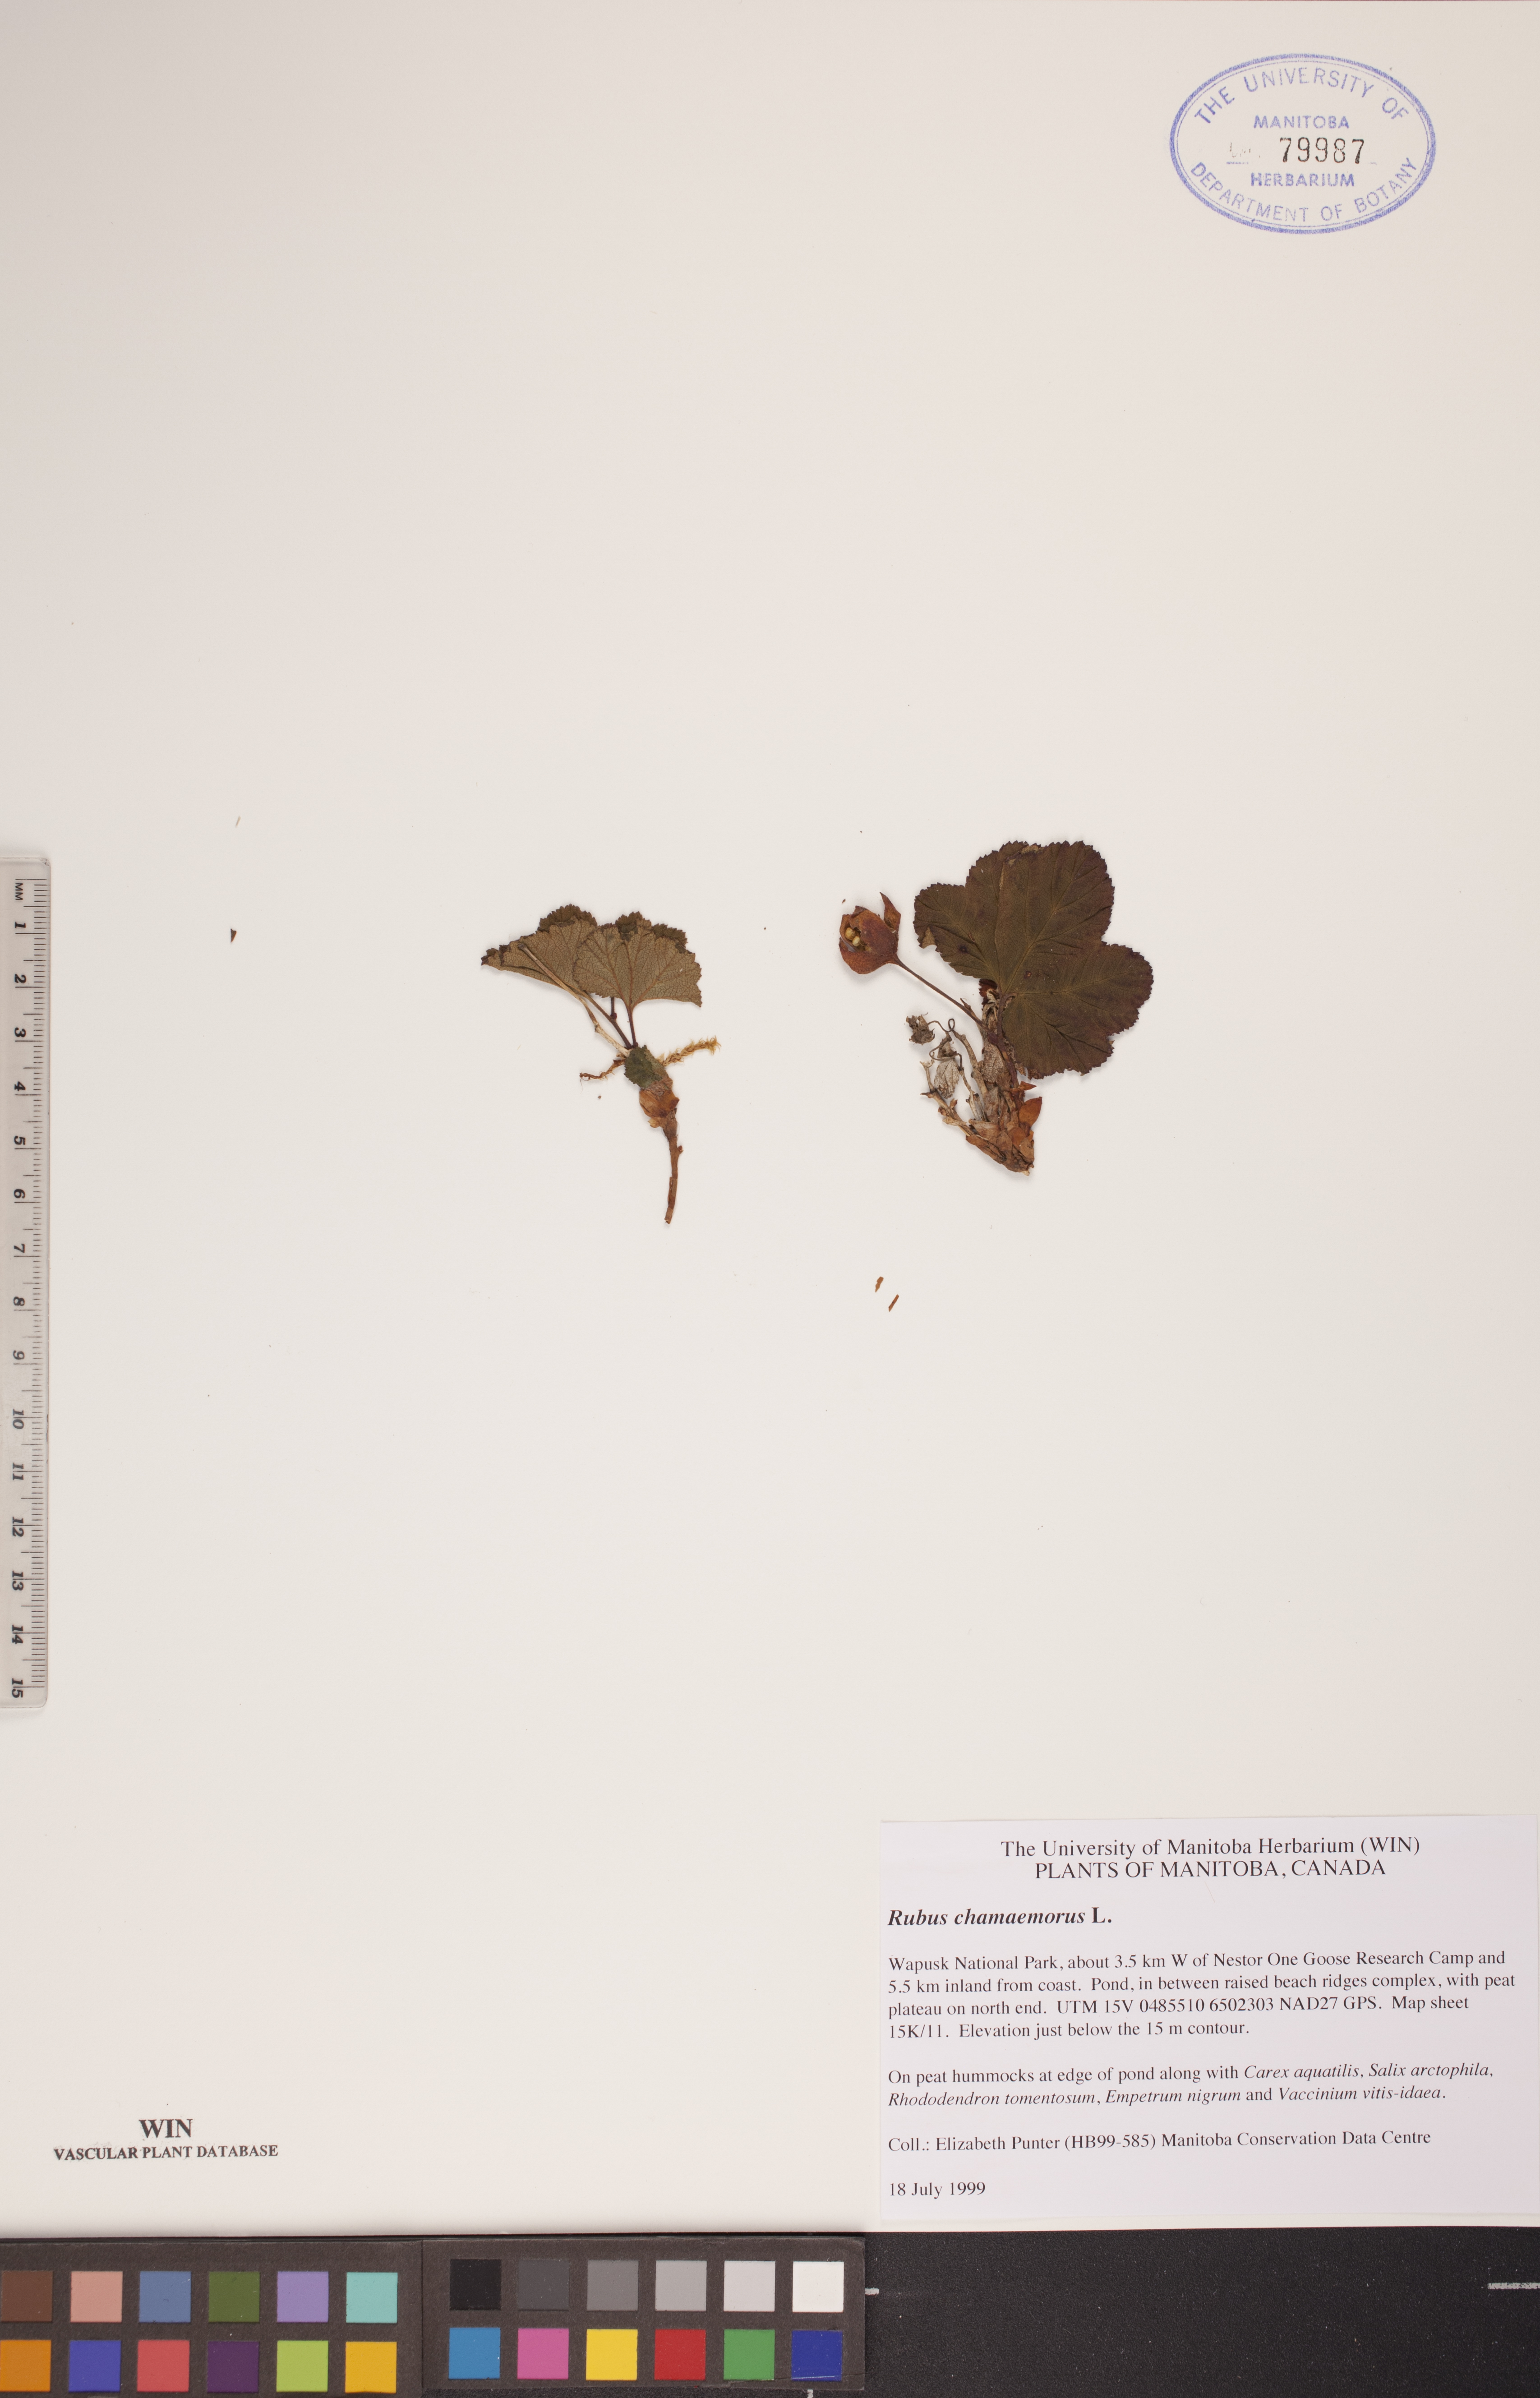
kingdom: Plantae
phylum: Tracheophyta
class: Magnoliopsida
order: Rosales
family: Rosaceae
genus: Rubus
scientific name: Rubus chamaemorus
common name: Cloudberry
